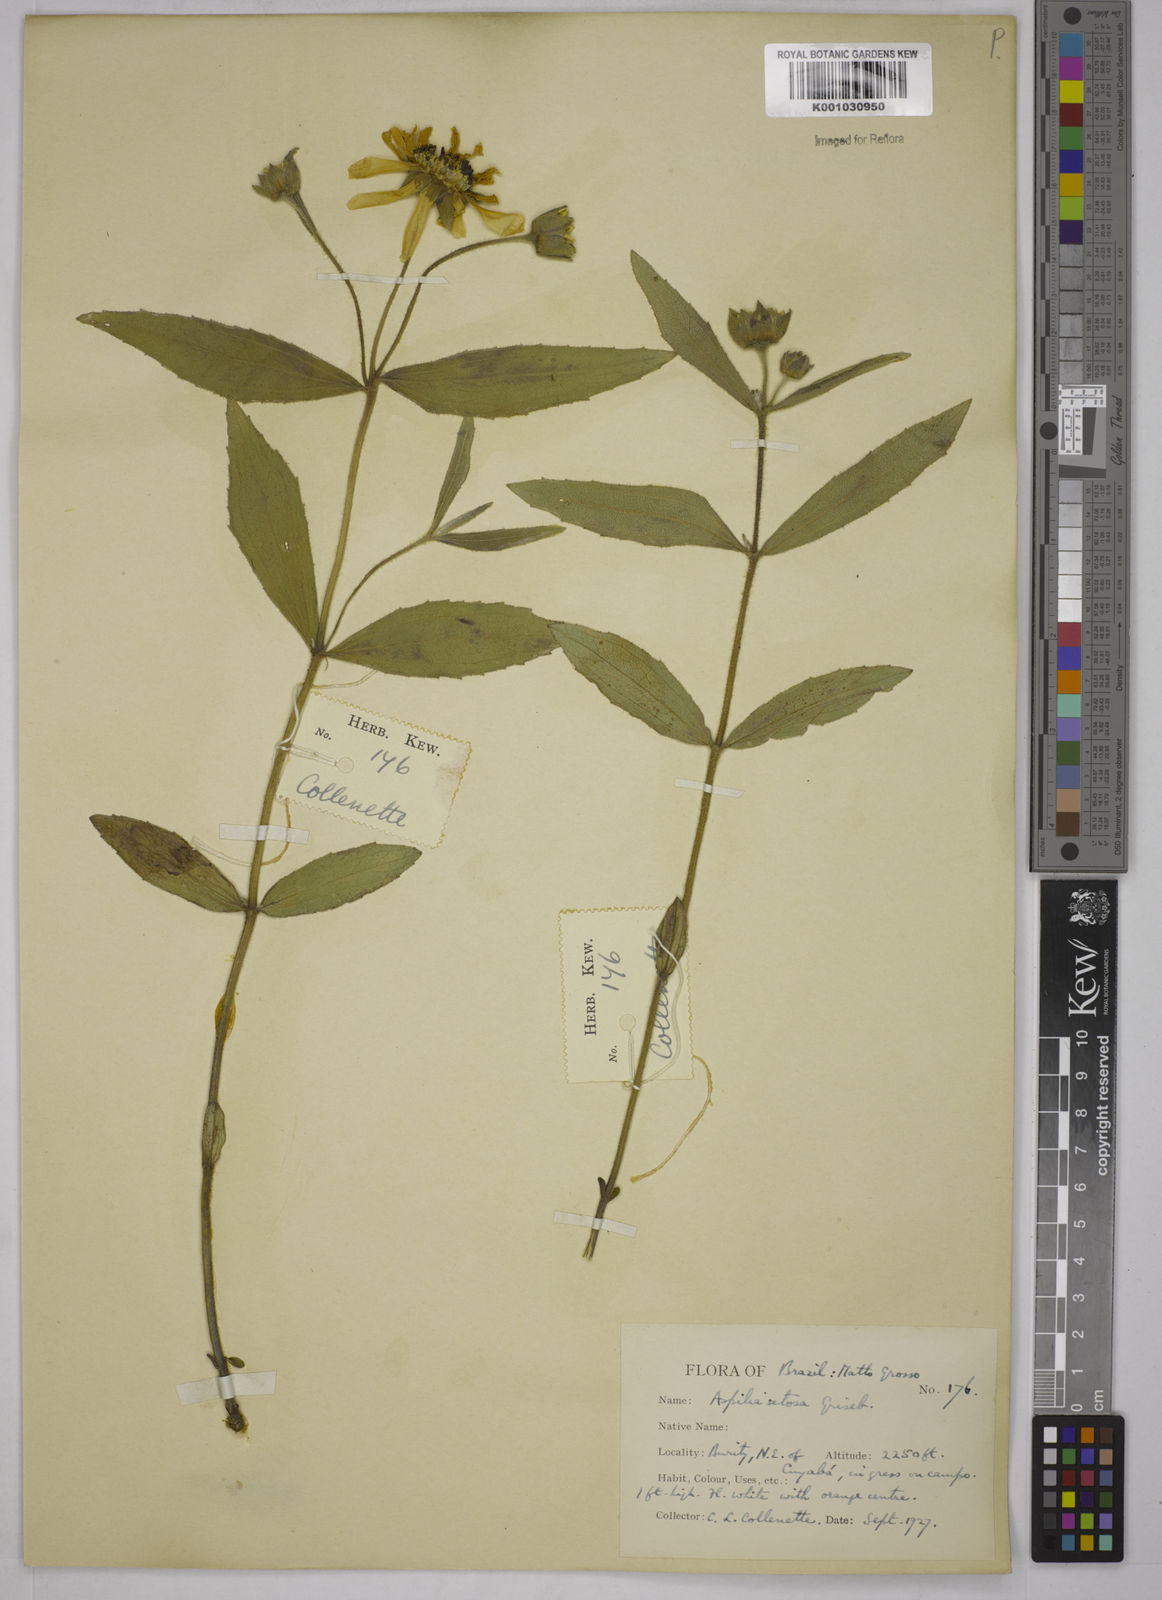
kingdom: Plantae
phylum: Tracheophyta
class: Magnoliopsida
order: Asterales
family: Asteraceae
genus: Aspilia
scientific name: Aspilia
